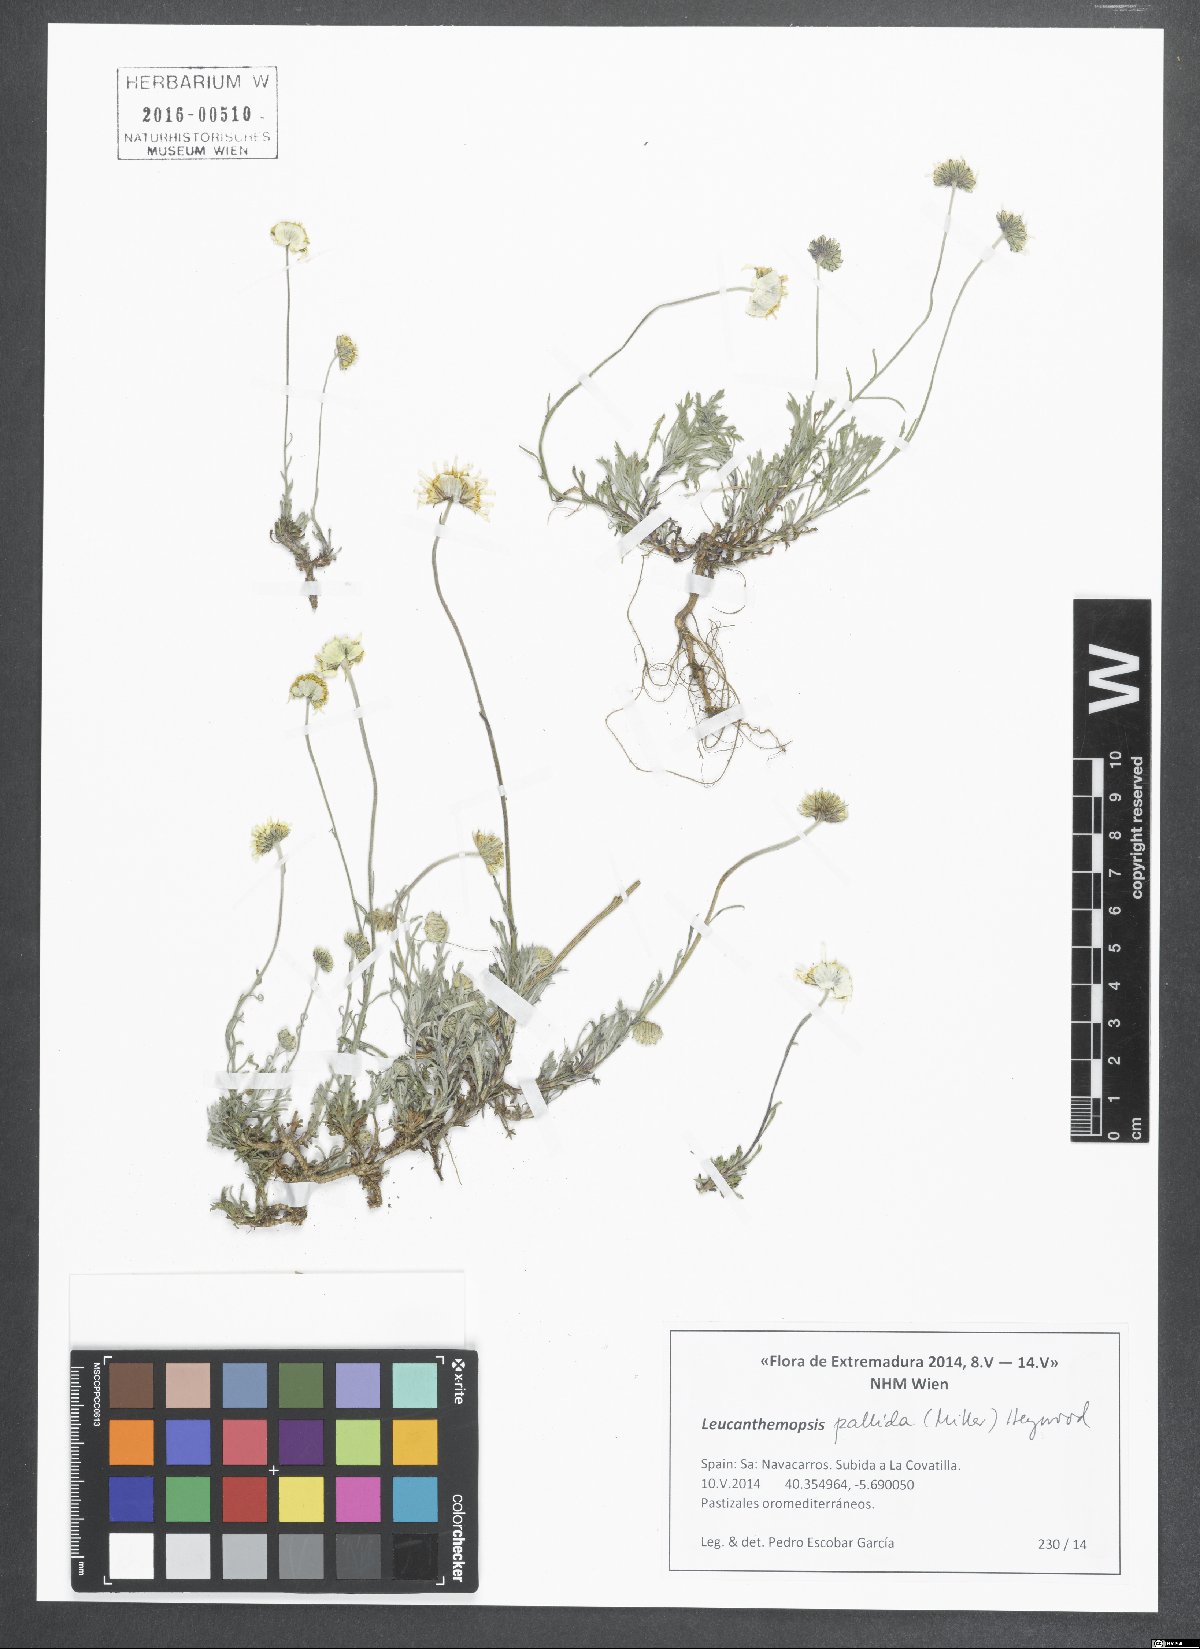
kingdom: Plantae
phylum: Tracheophyta
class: Magnoliopsida
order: Asterales
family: Asteraceae
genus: Leucanthemopsis
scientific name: Leucanthemopsis pallida
